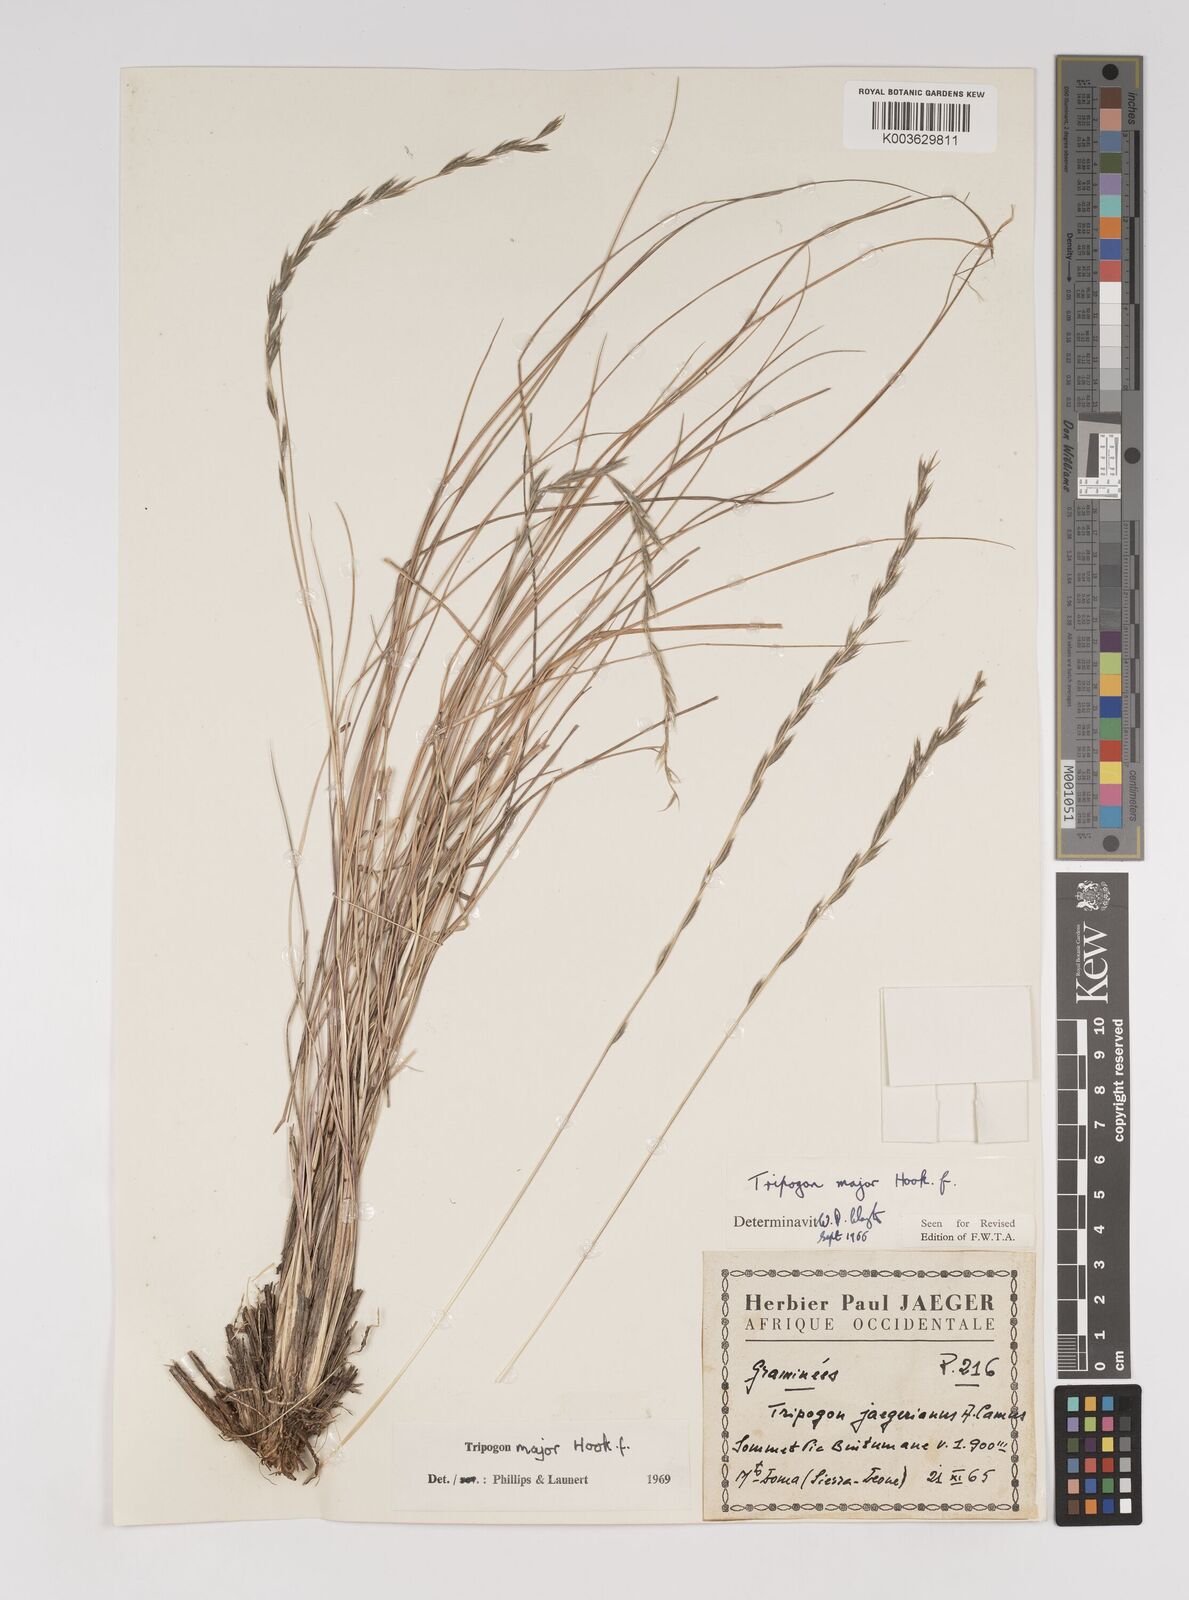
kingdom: Plantae
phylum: Tracheophyta
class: Liliopsida
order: Poales
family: Poaceae
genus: Tripogon
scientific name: Tripogon major
